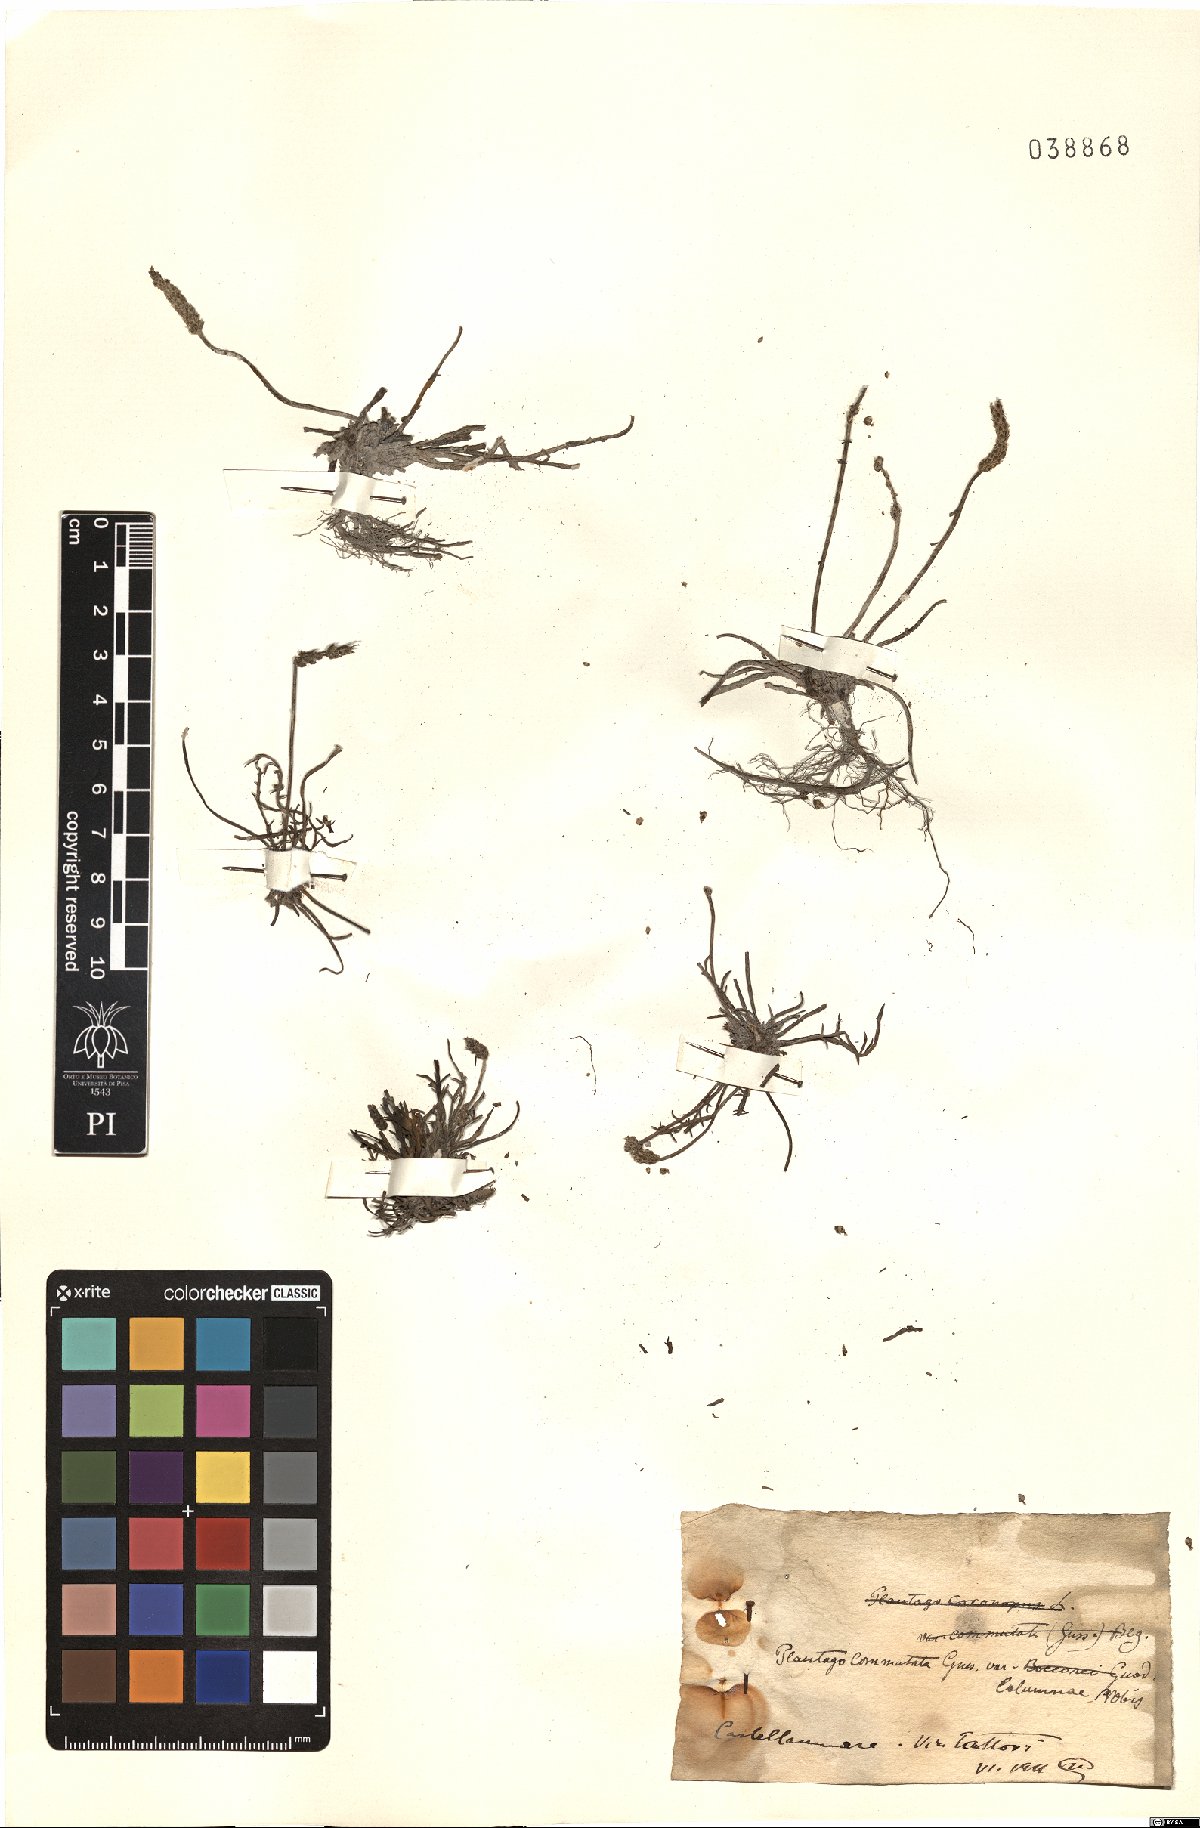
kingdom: Plantae
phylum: Tracheophyta
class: Magnoliopsida
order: Lamiales
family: Plantaginaceae
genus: Plantago
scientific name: Plantago weldenii
